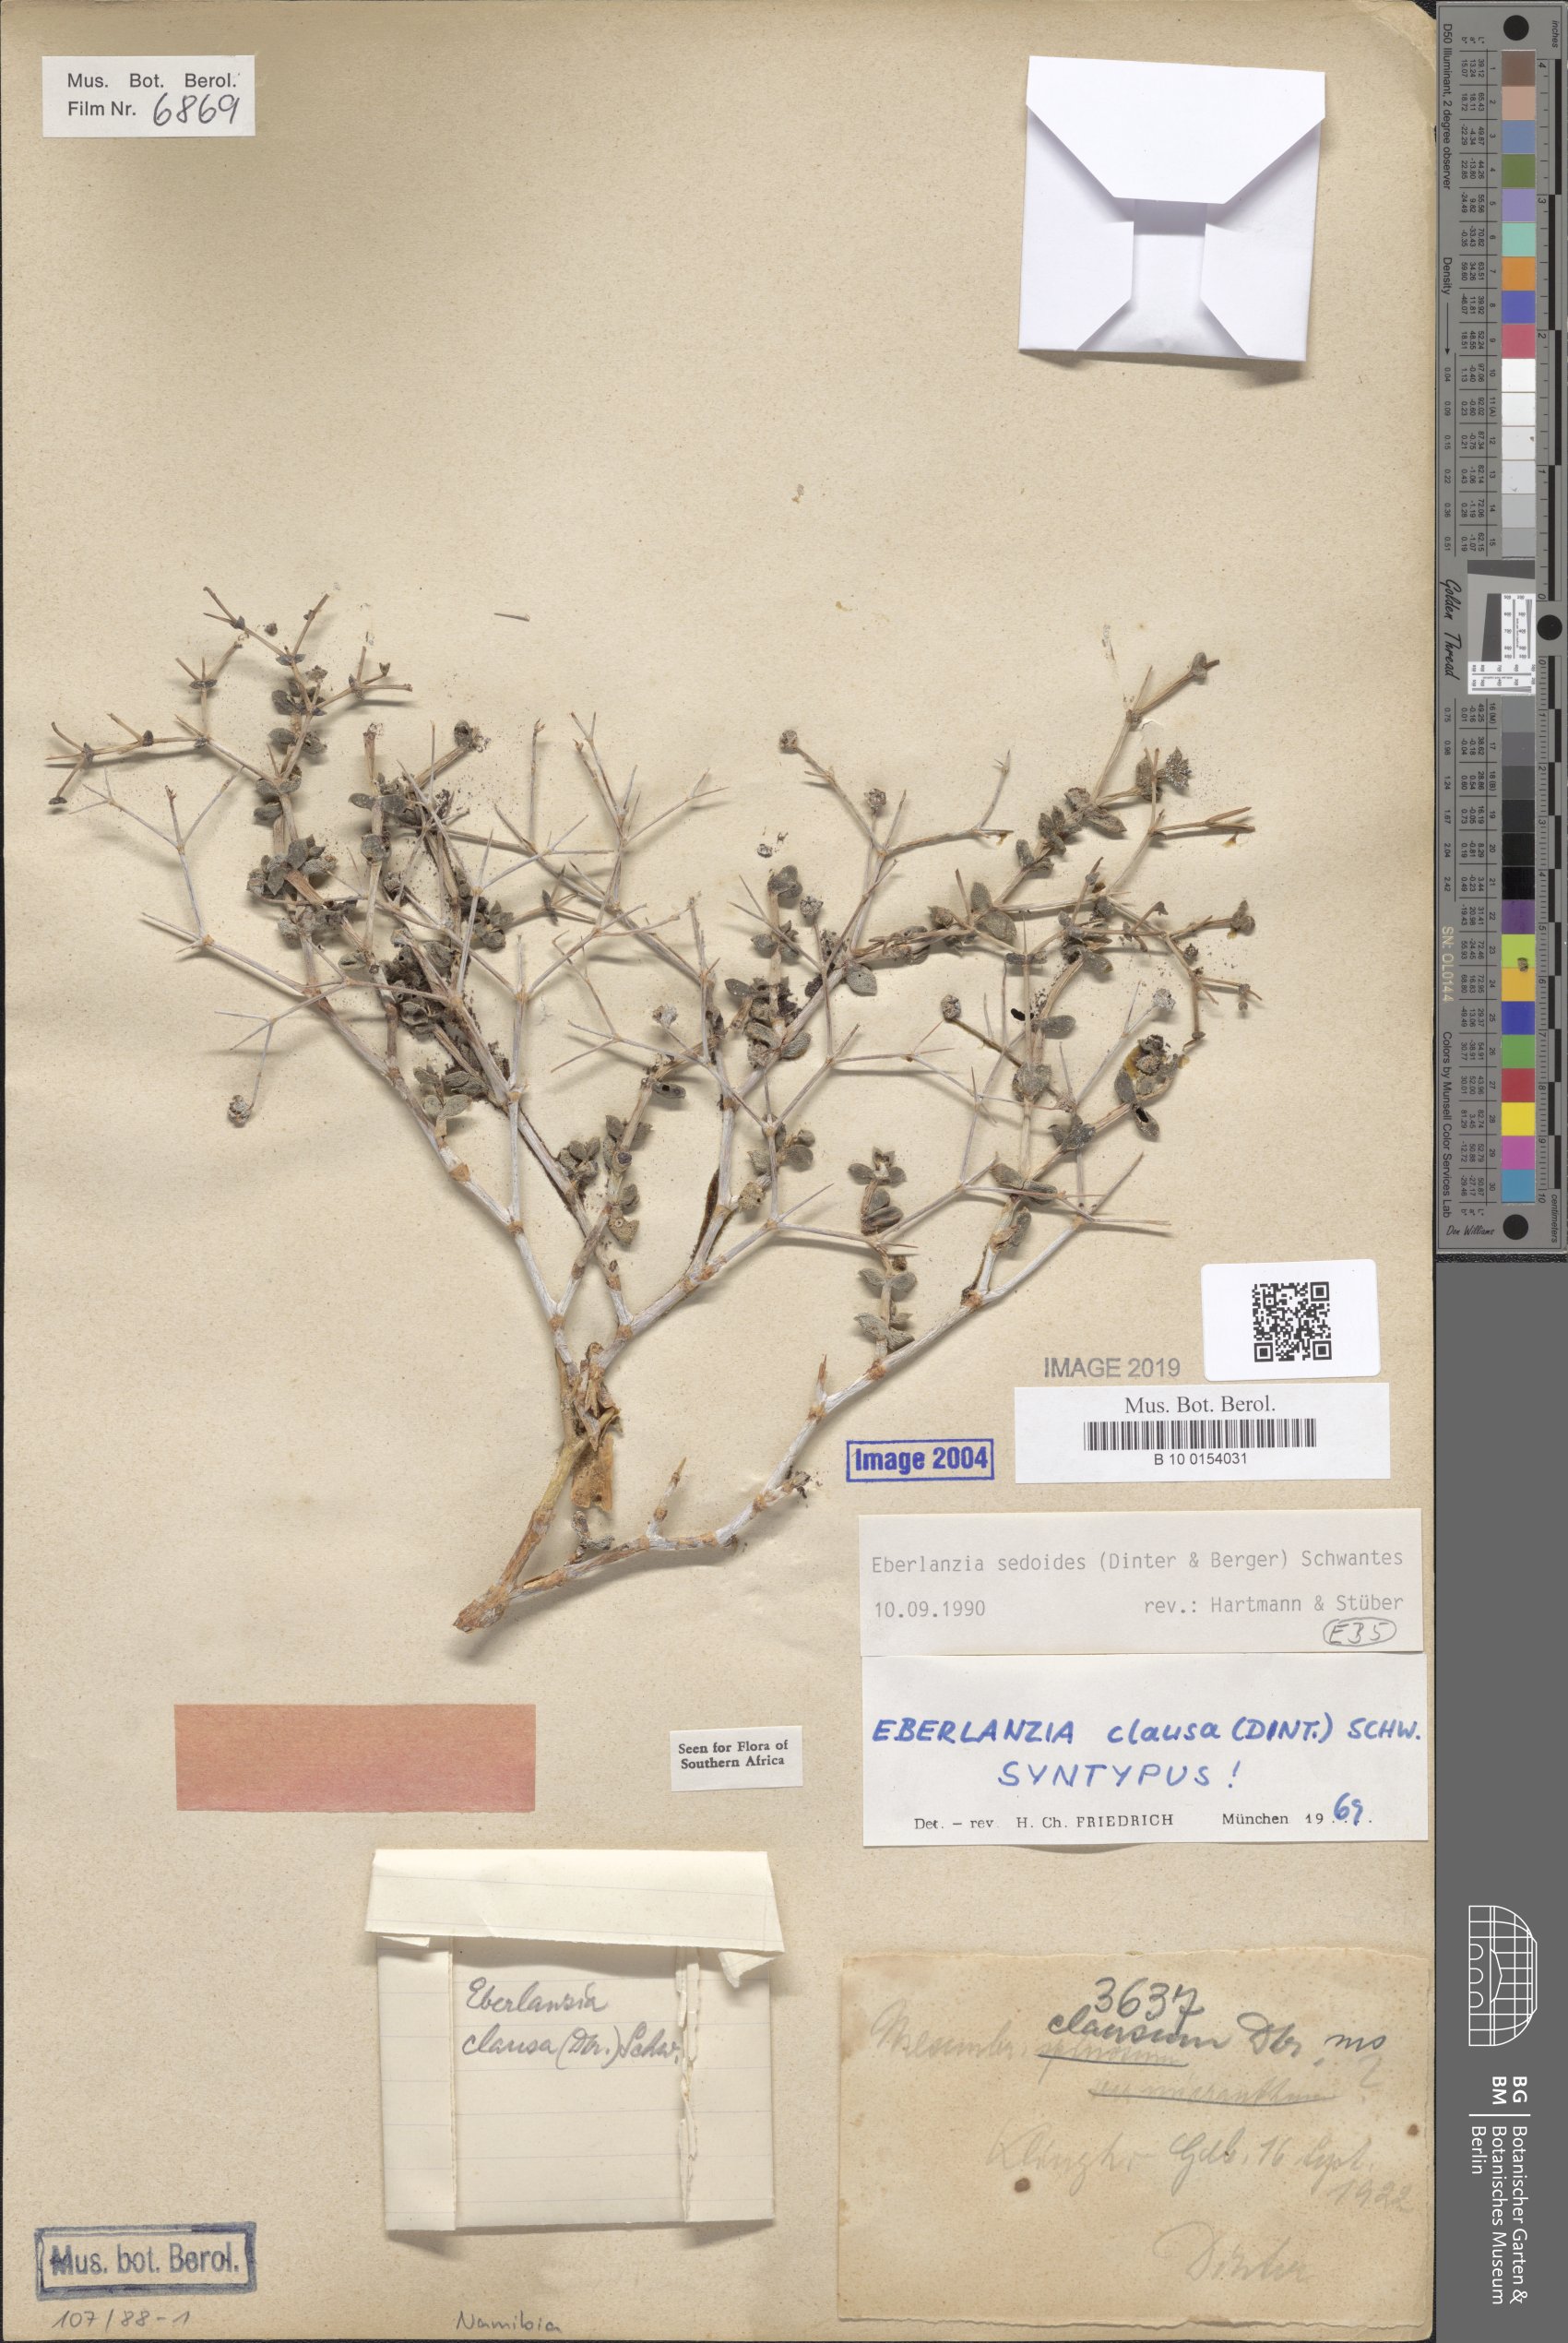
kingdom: Plantae
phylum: Tracheophyta
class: Magnoliopsida
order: Caryophyllales
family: Aizoaceae
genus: Eberlanzia
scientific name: Eberlanzia sedoides
